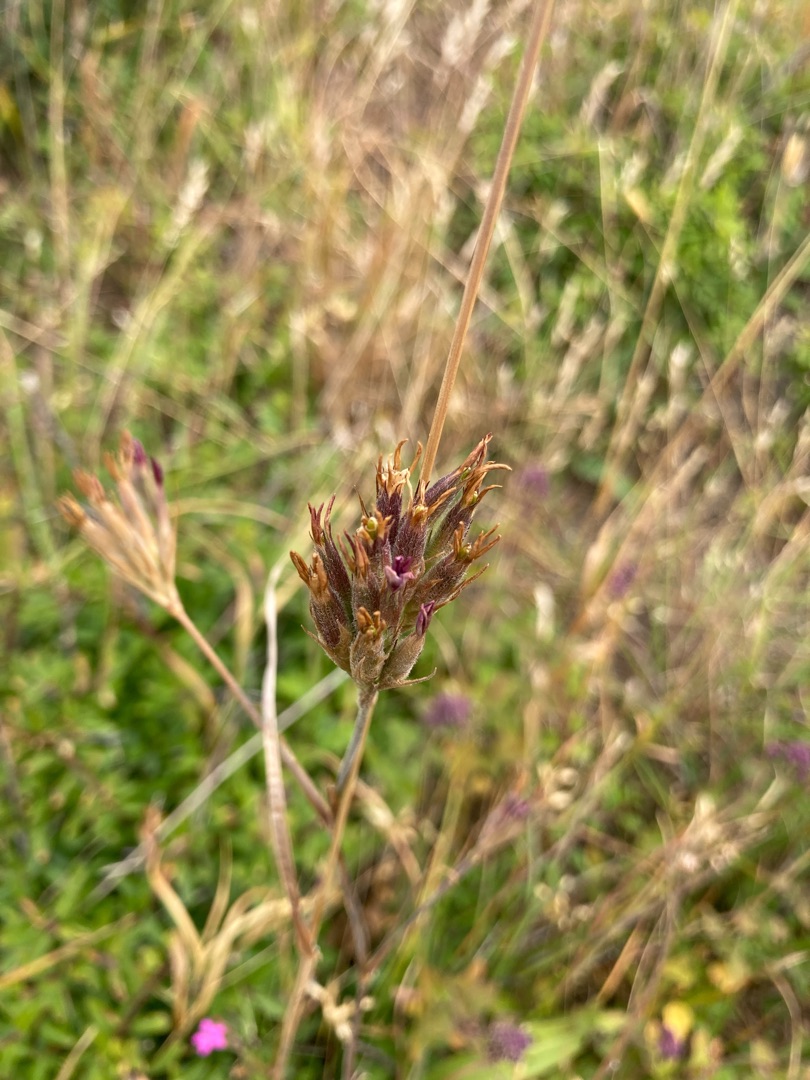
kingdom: Plantae
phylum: Tracheophyta
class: Magnoliopsida
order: Caryophyllales
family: Caryophyllaceae
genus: Dianthus
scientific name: Dianthus armeria
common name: Kost-nellike
